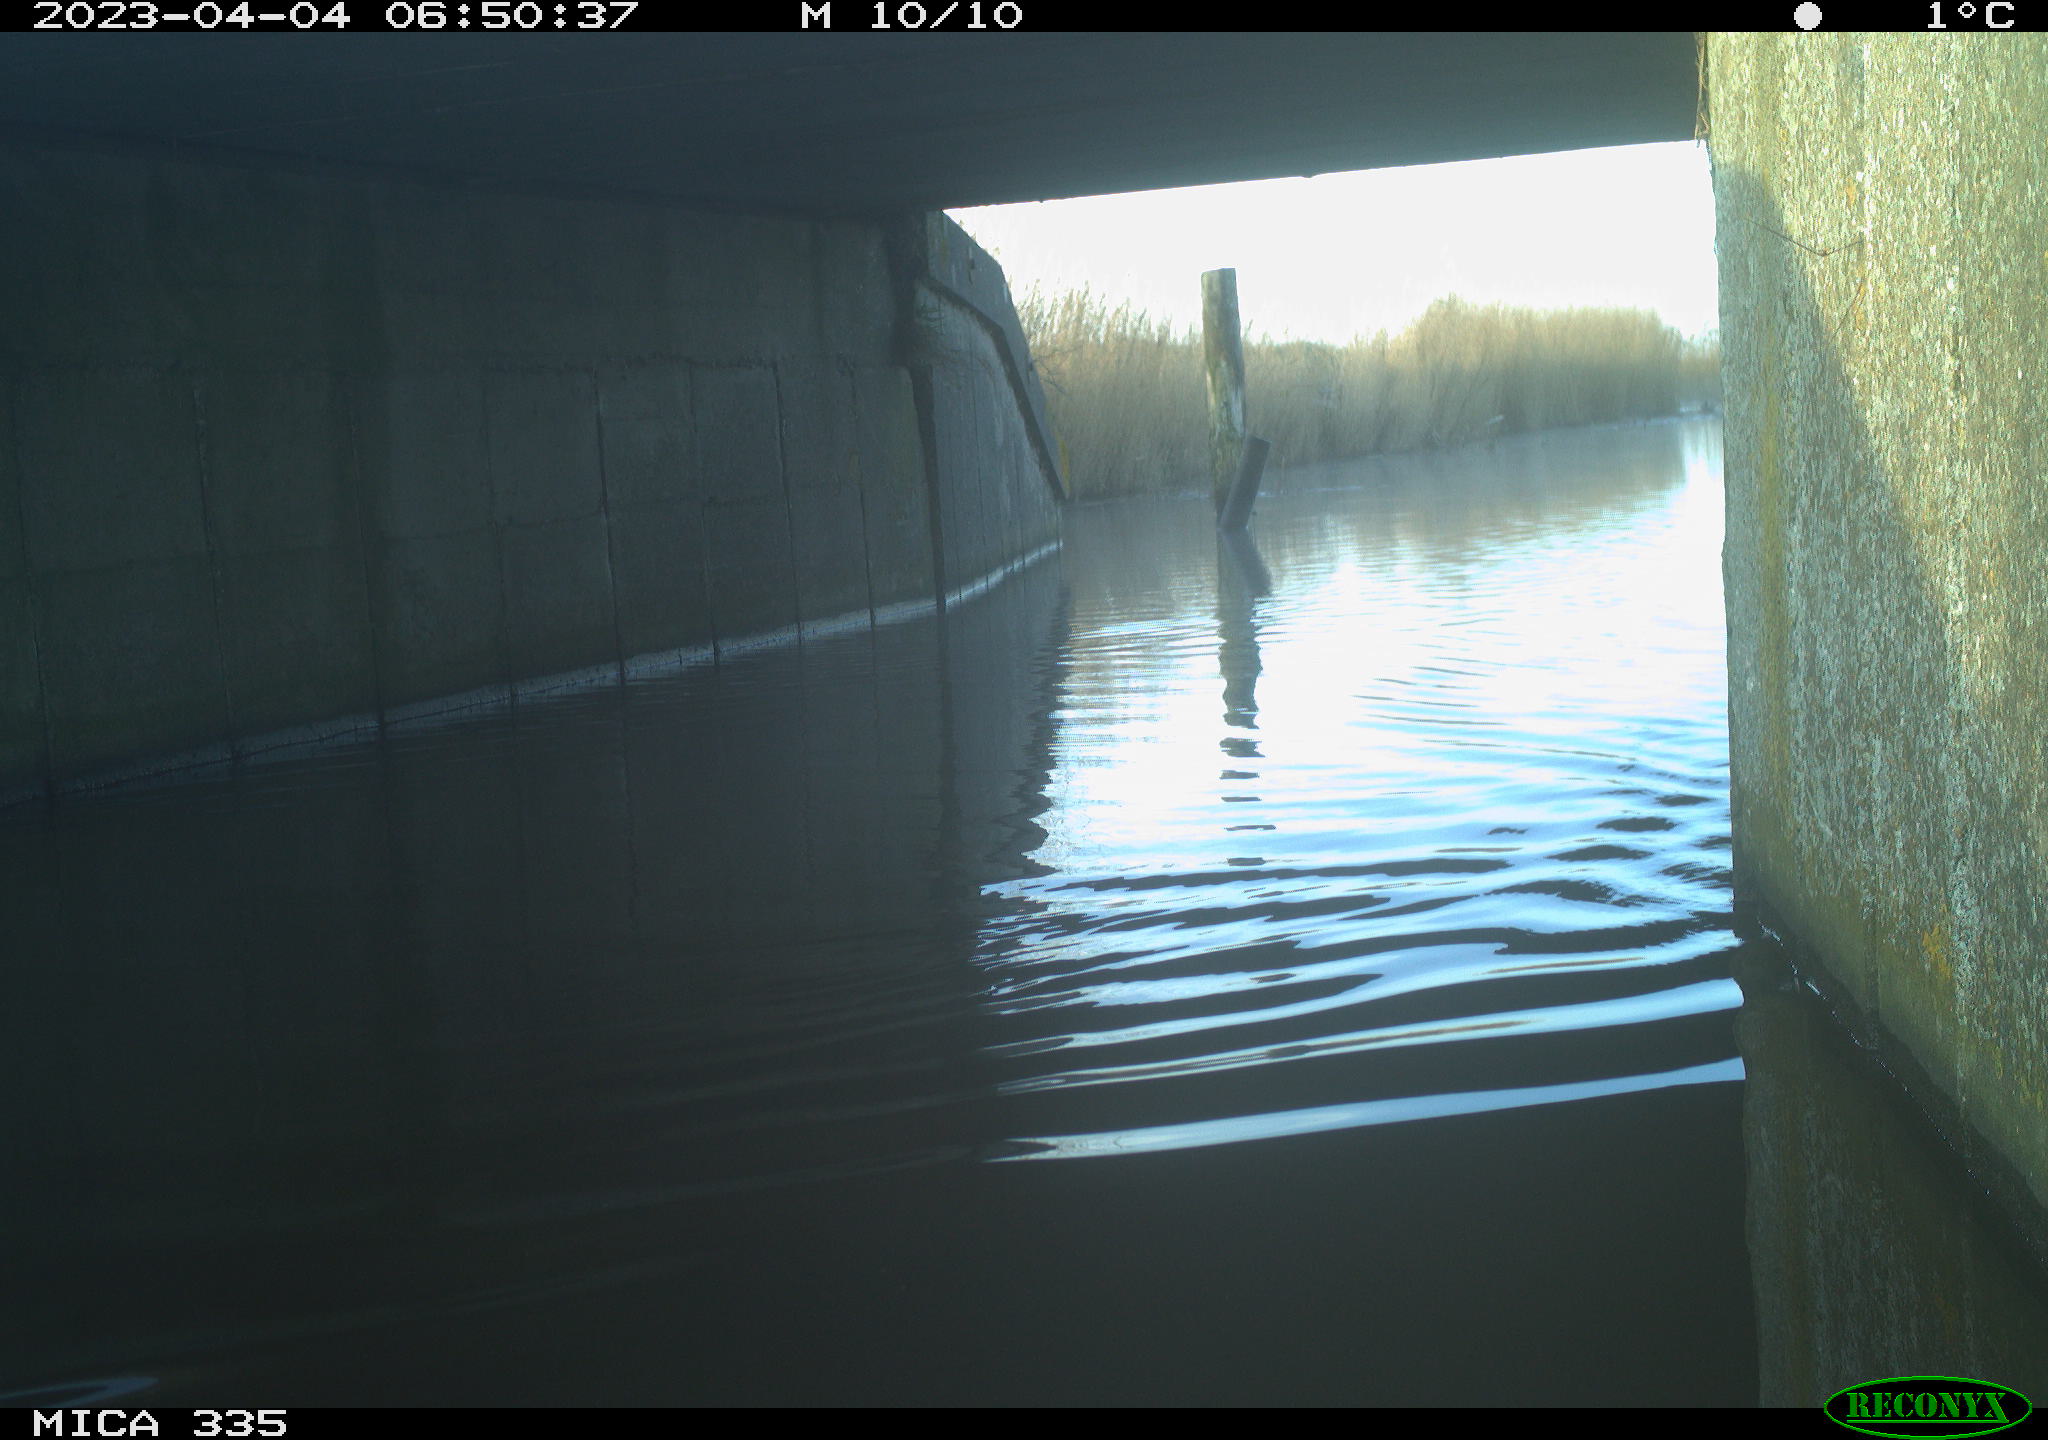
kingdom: Animalia
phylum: Chordata
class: Aves
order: Anseriformes
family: Anatidae
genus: Anas
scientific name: Anas
